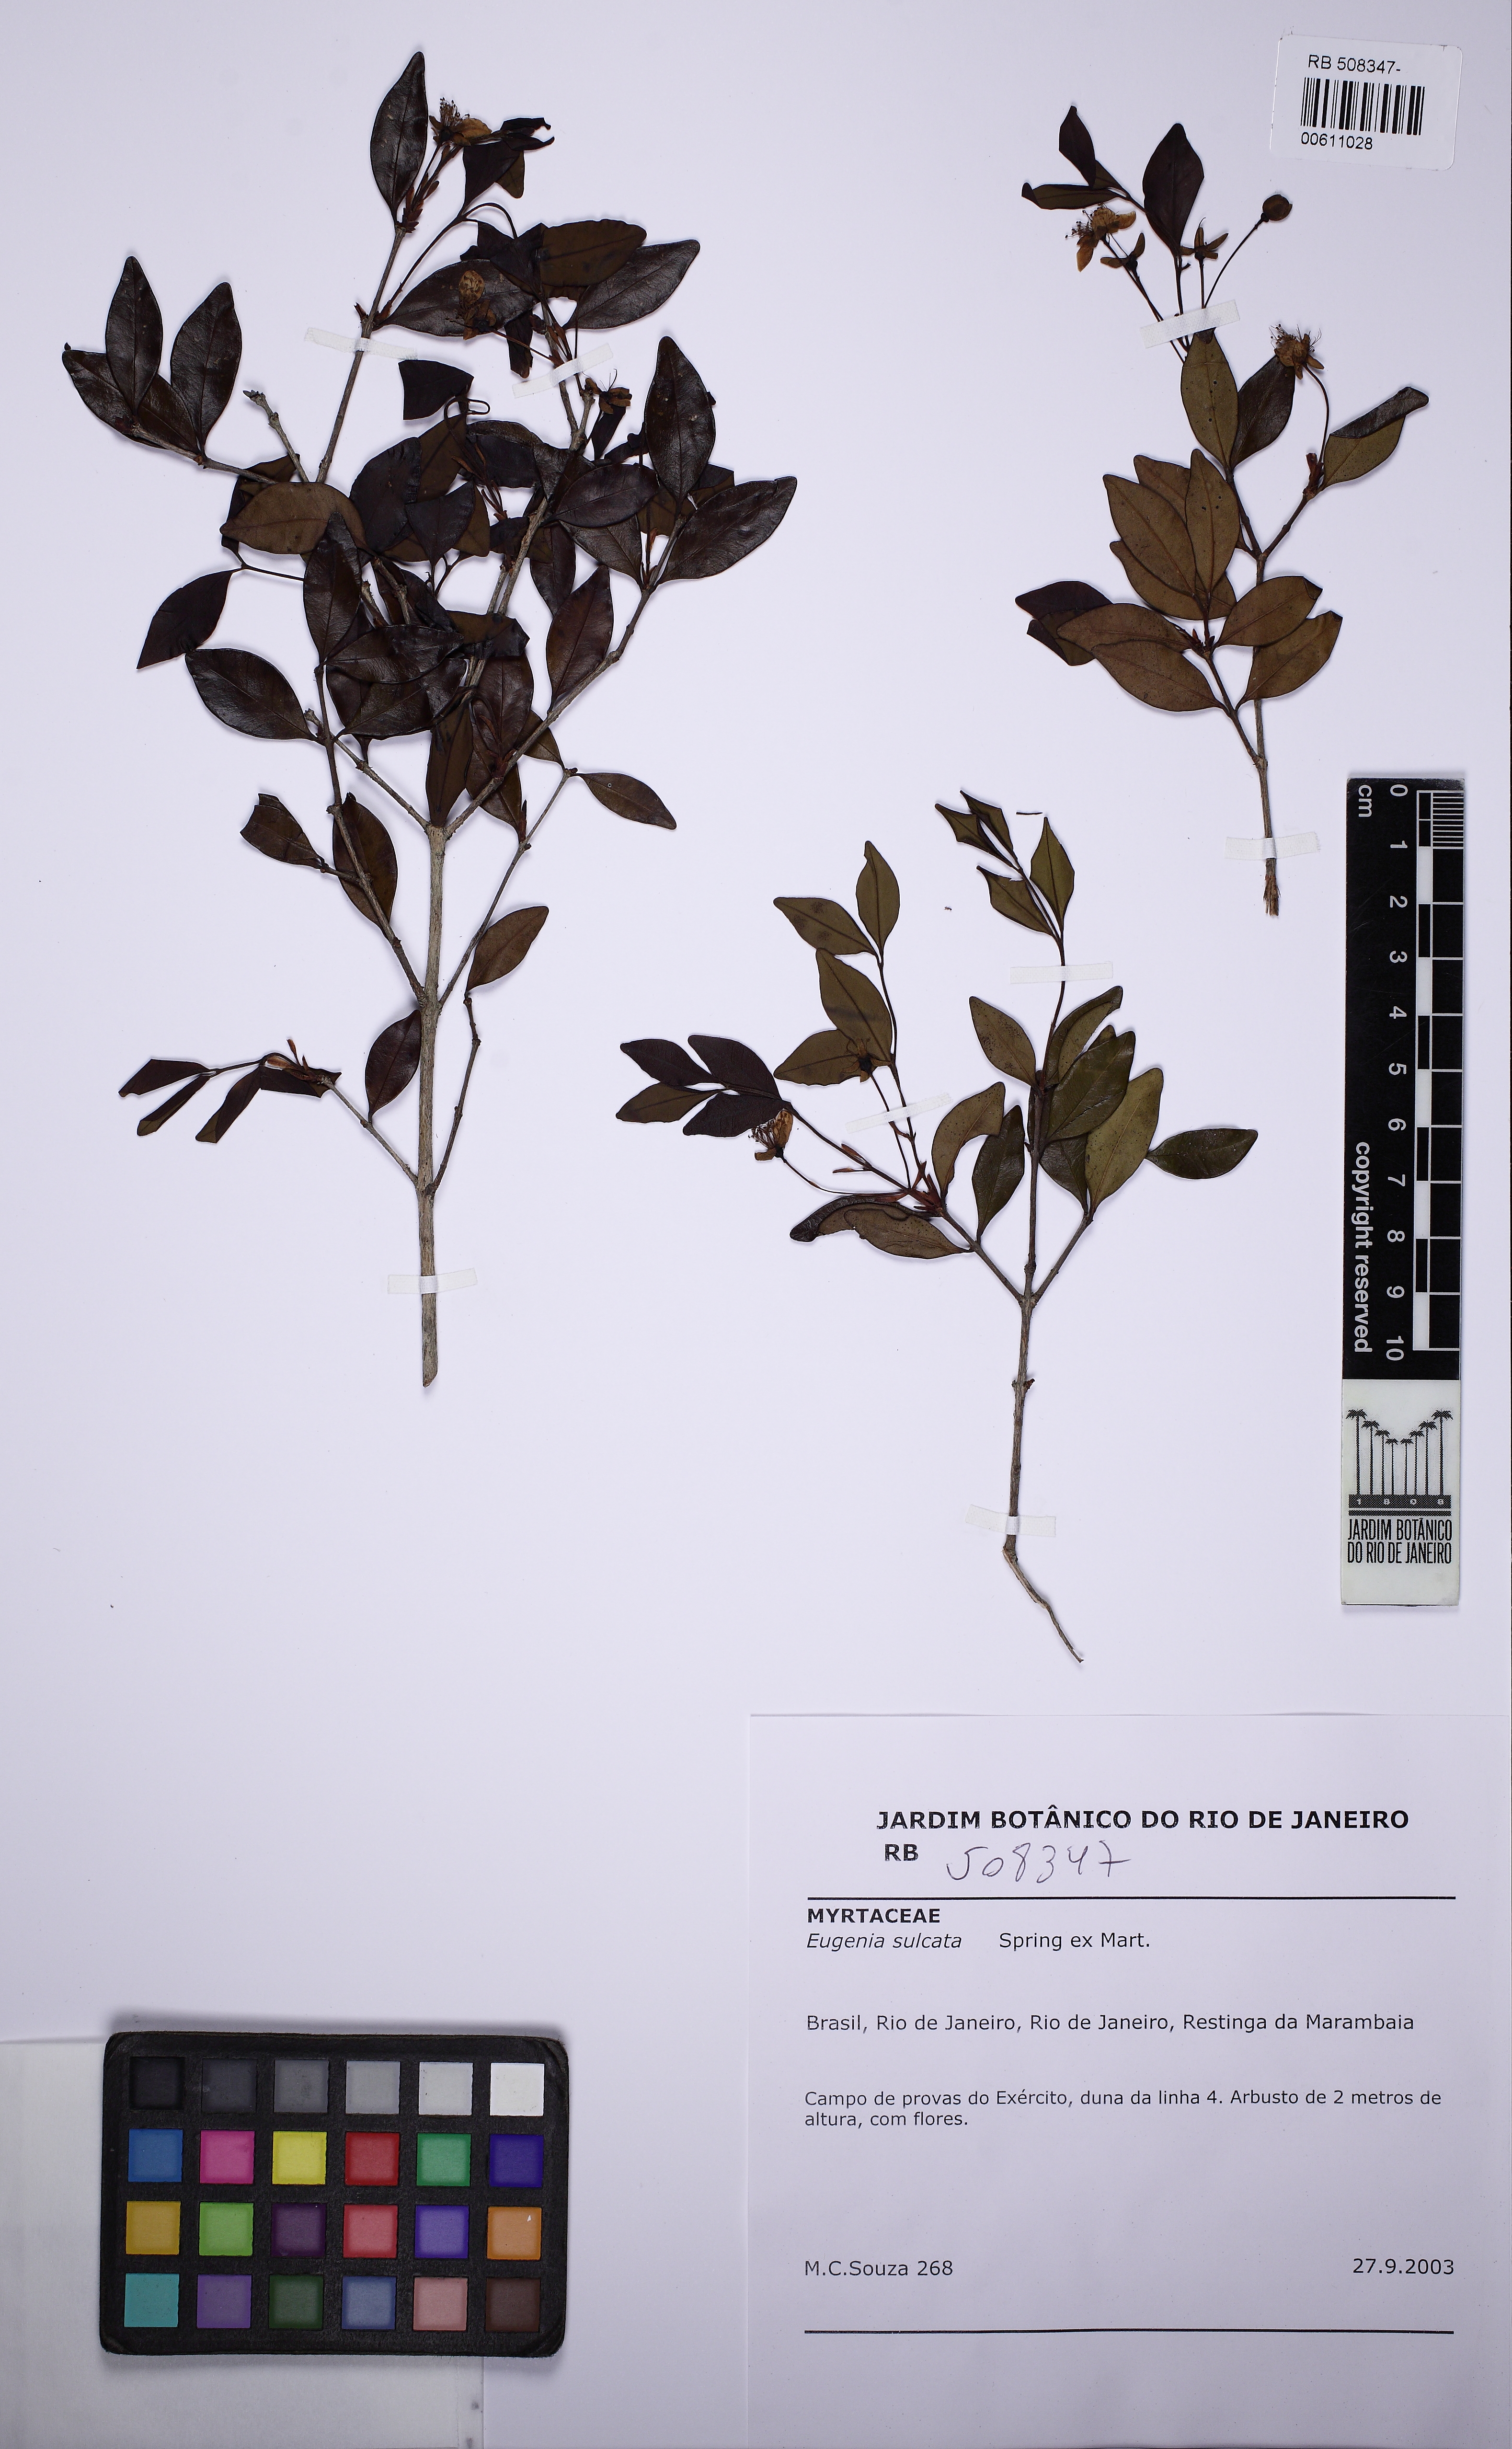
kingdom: Plantae
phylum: Tracheophyta
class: Magnoliopsida
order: Myrtales
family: Myrtaceae
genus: Eugenia
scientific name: Eugenia sulcata
